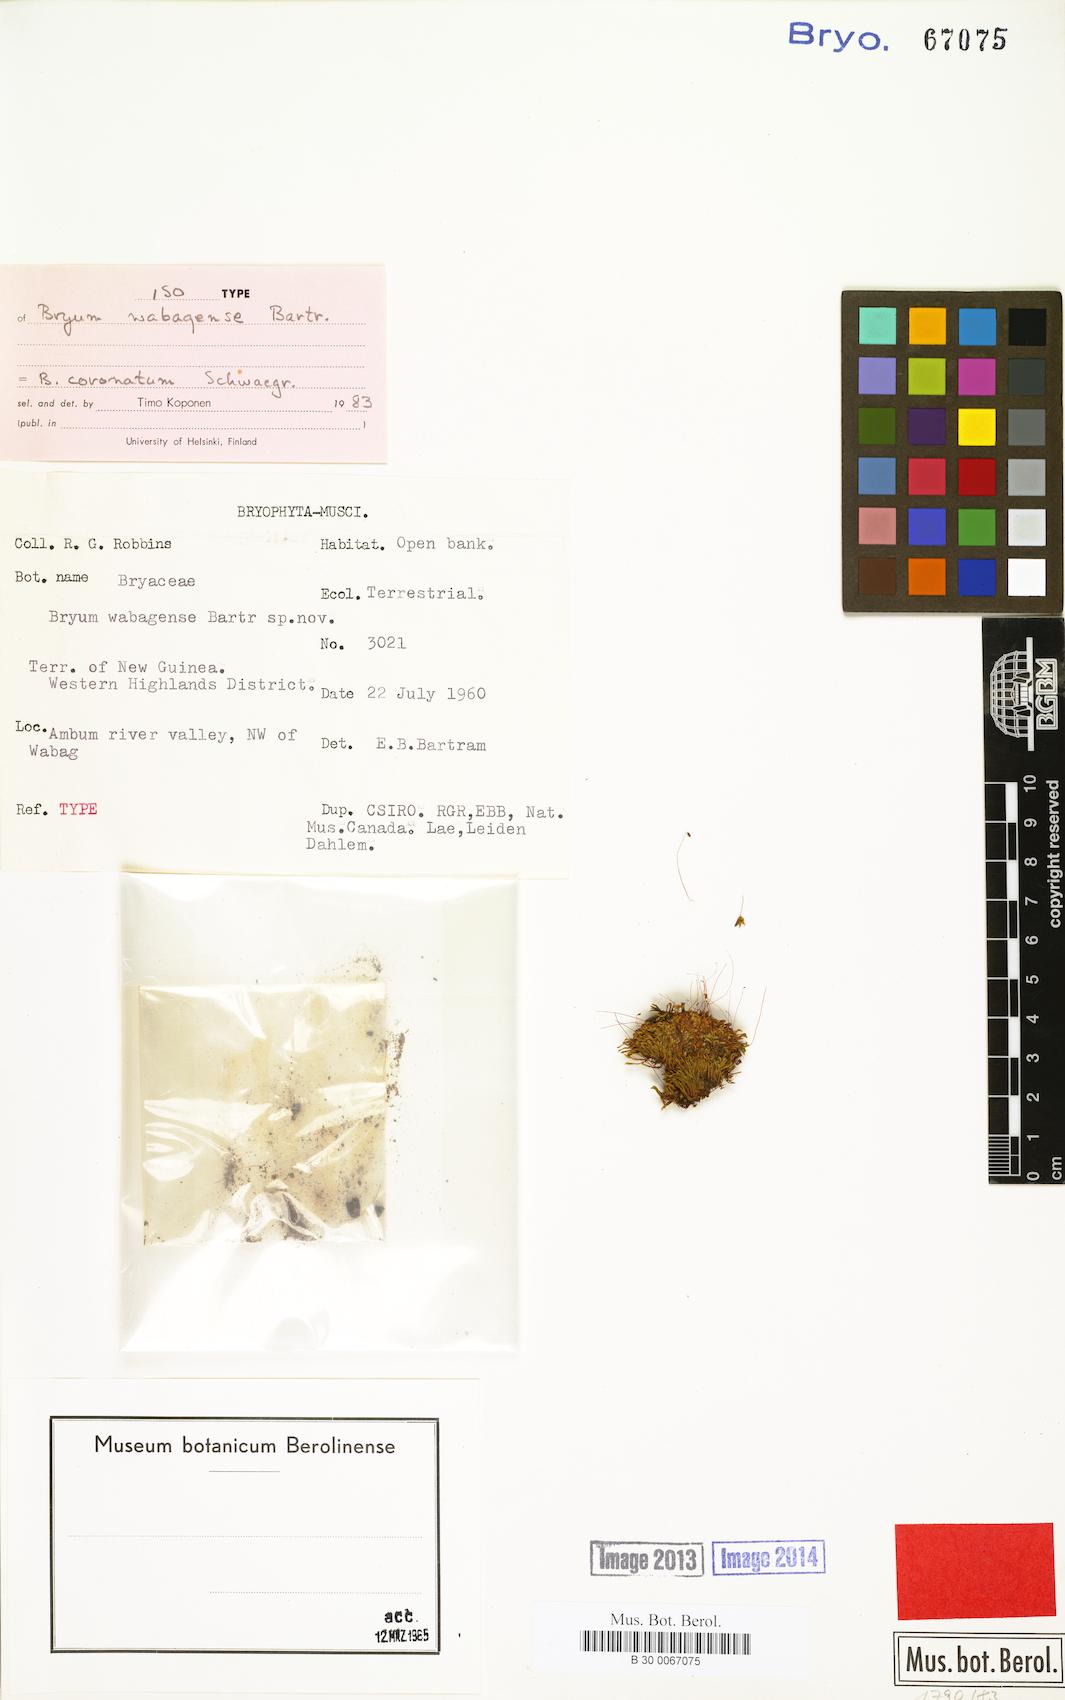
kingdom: Plantae
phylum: Bryophyta
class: Bryopsida
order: Bryales
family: Bryaceae
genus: Gemmabryum
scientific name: Gemmabryum coronatum
